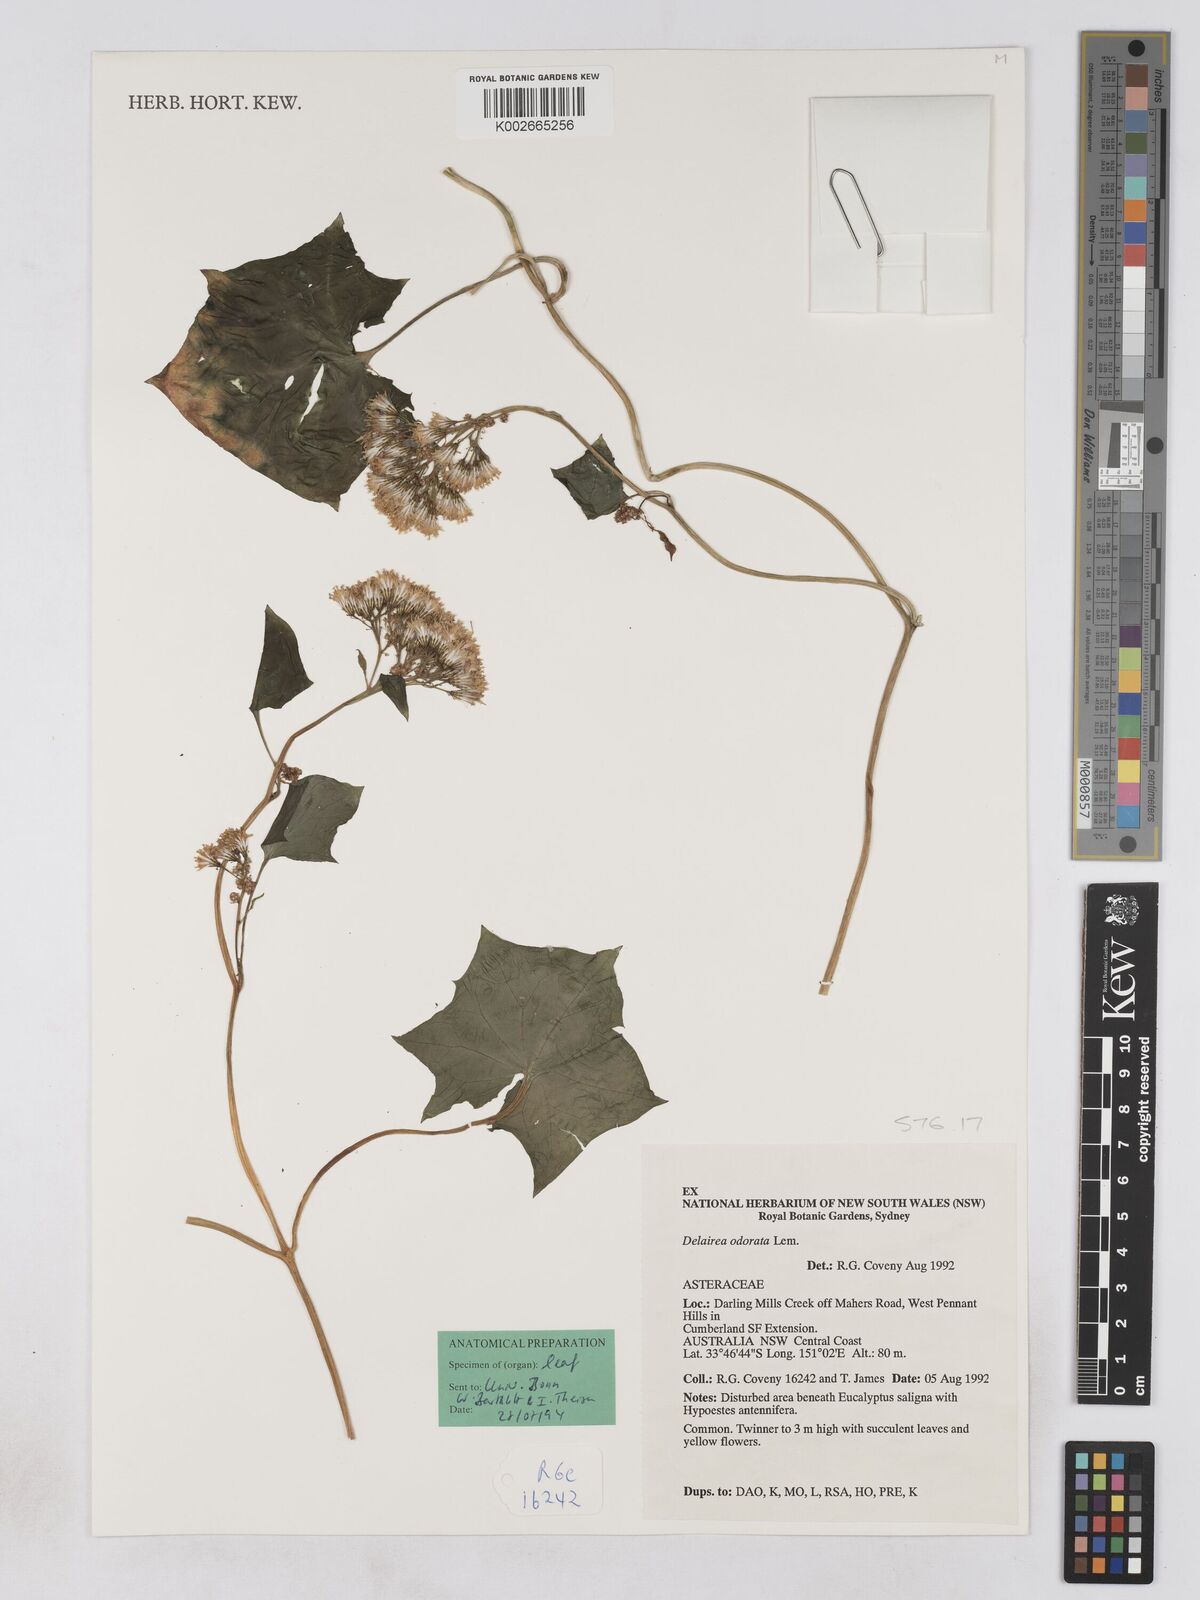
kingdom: Plantae
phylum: Tracheophyta
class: Magnoliopsida
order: Asterales
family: Asteraceae
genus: Delairea
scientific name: Delairea odorata
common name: Cape-ivy
